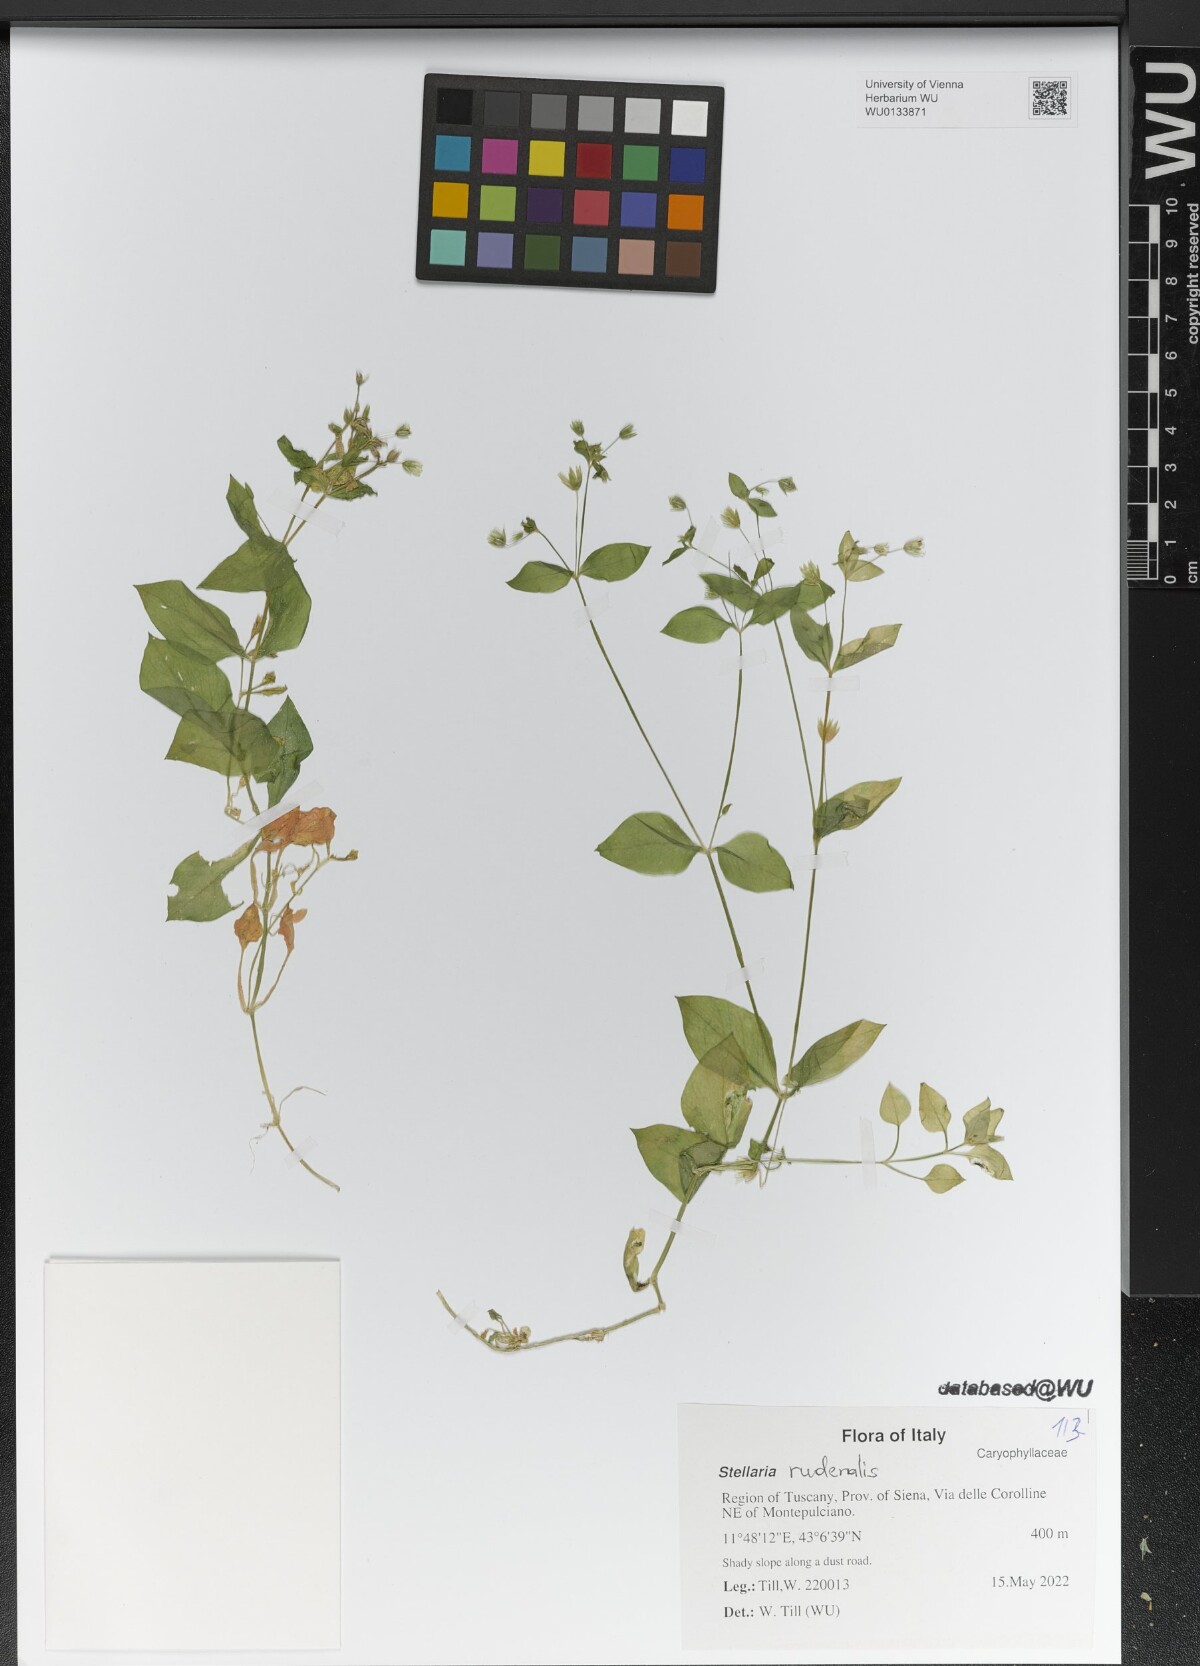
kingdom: Plantae
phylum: Tracheophyta
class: Magnoliopsida
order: Caryophyllales
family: Caryophyllaceae
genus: Stellaria
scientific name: Stellaria ruderalis
